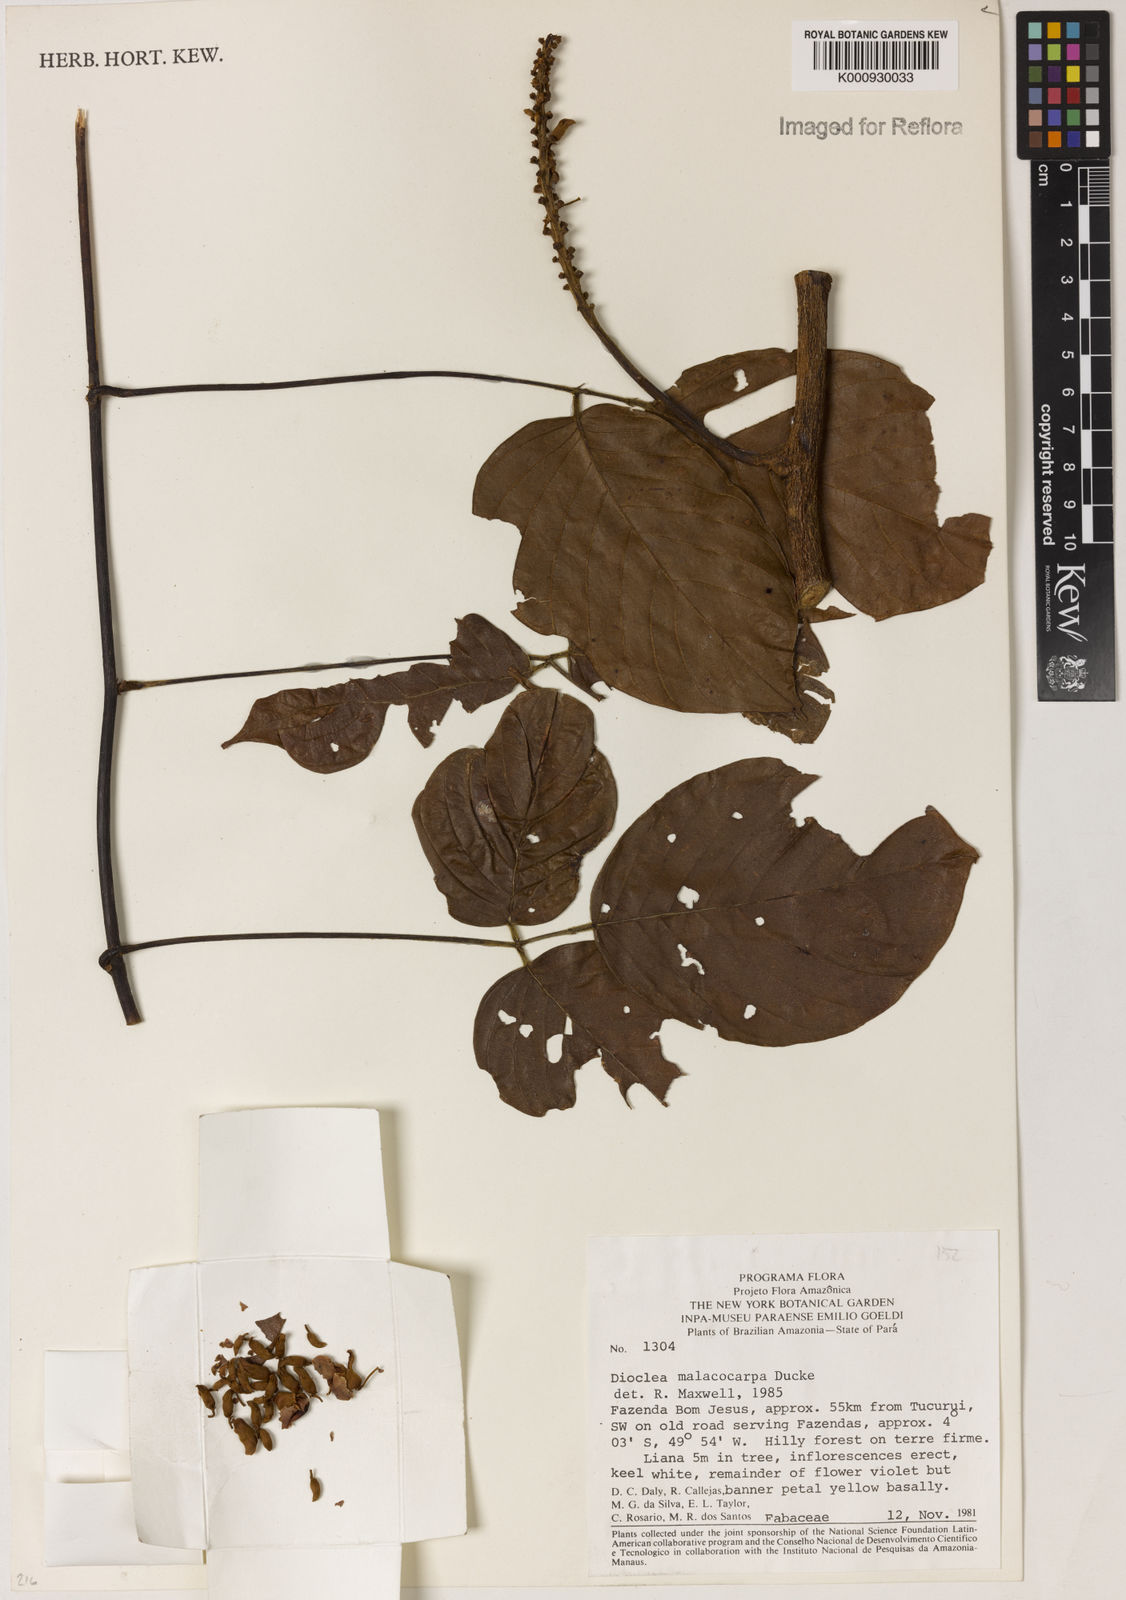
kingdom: Plantae
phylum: Tracheophyta
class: Magnoliopsida
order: Fabales
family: Fabaceae
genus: Macropsychanthus
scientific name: Macropsychanthus malacocarpus
